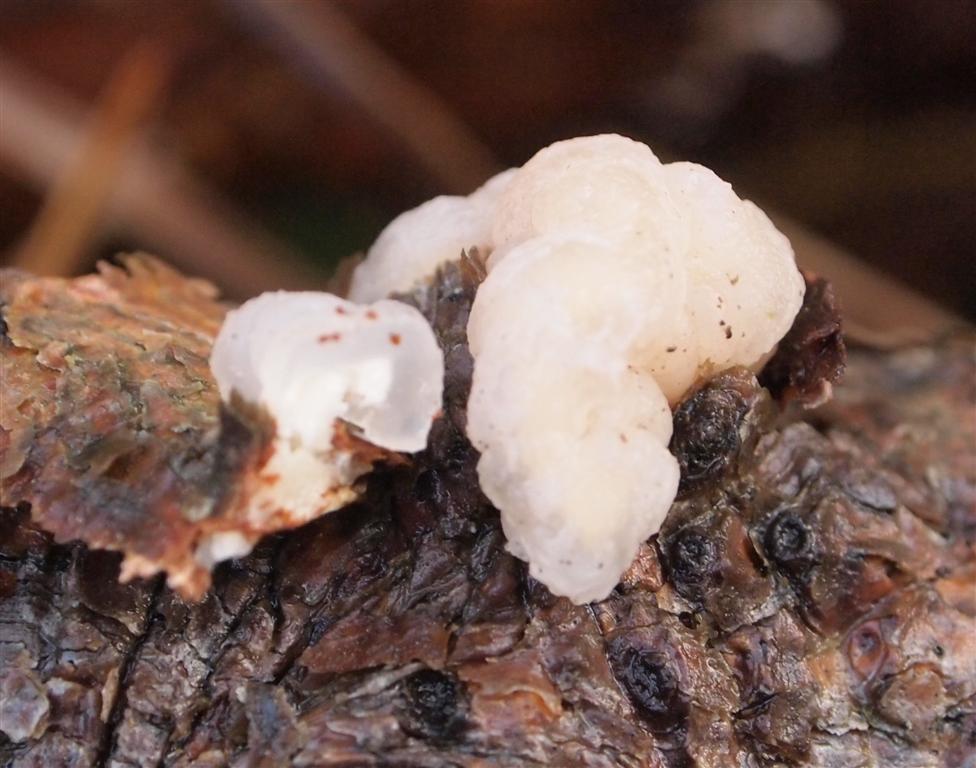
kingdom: Fungi
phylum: Basidiomycota
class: Tremellomycetes
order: Tremellales
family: Naemateliaceae
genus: Naematelia
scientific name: Naematelia encephala
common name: fyrre-bævresvamp
